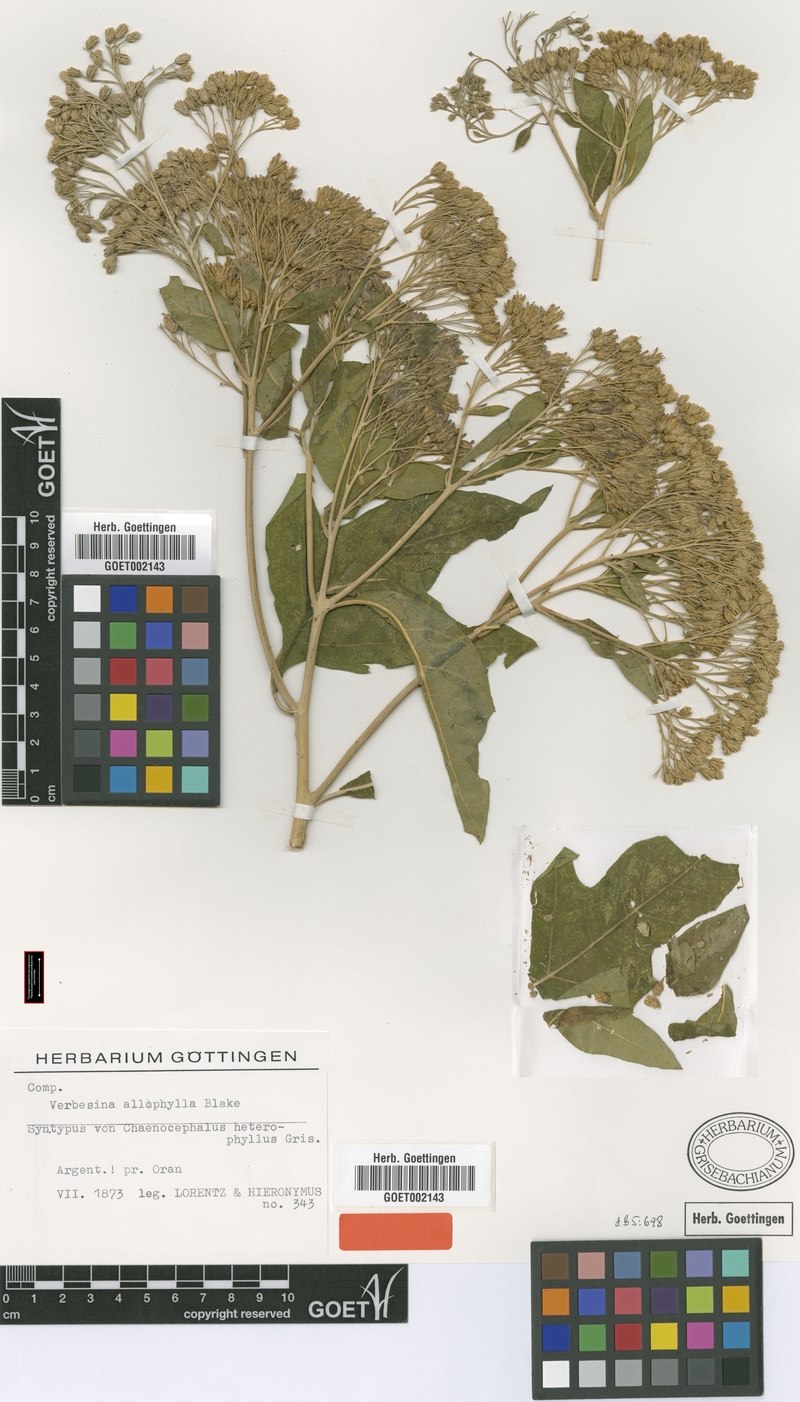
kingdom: Plantae
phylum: Tracheophyta
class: Magnoliopsida
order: Asterales
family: Asteraceae
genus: Verbesina
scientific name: Verbesina allophylla
